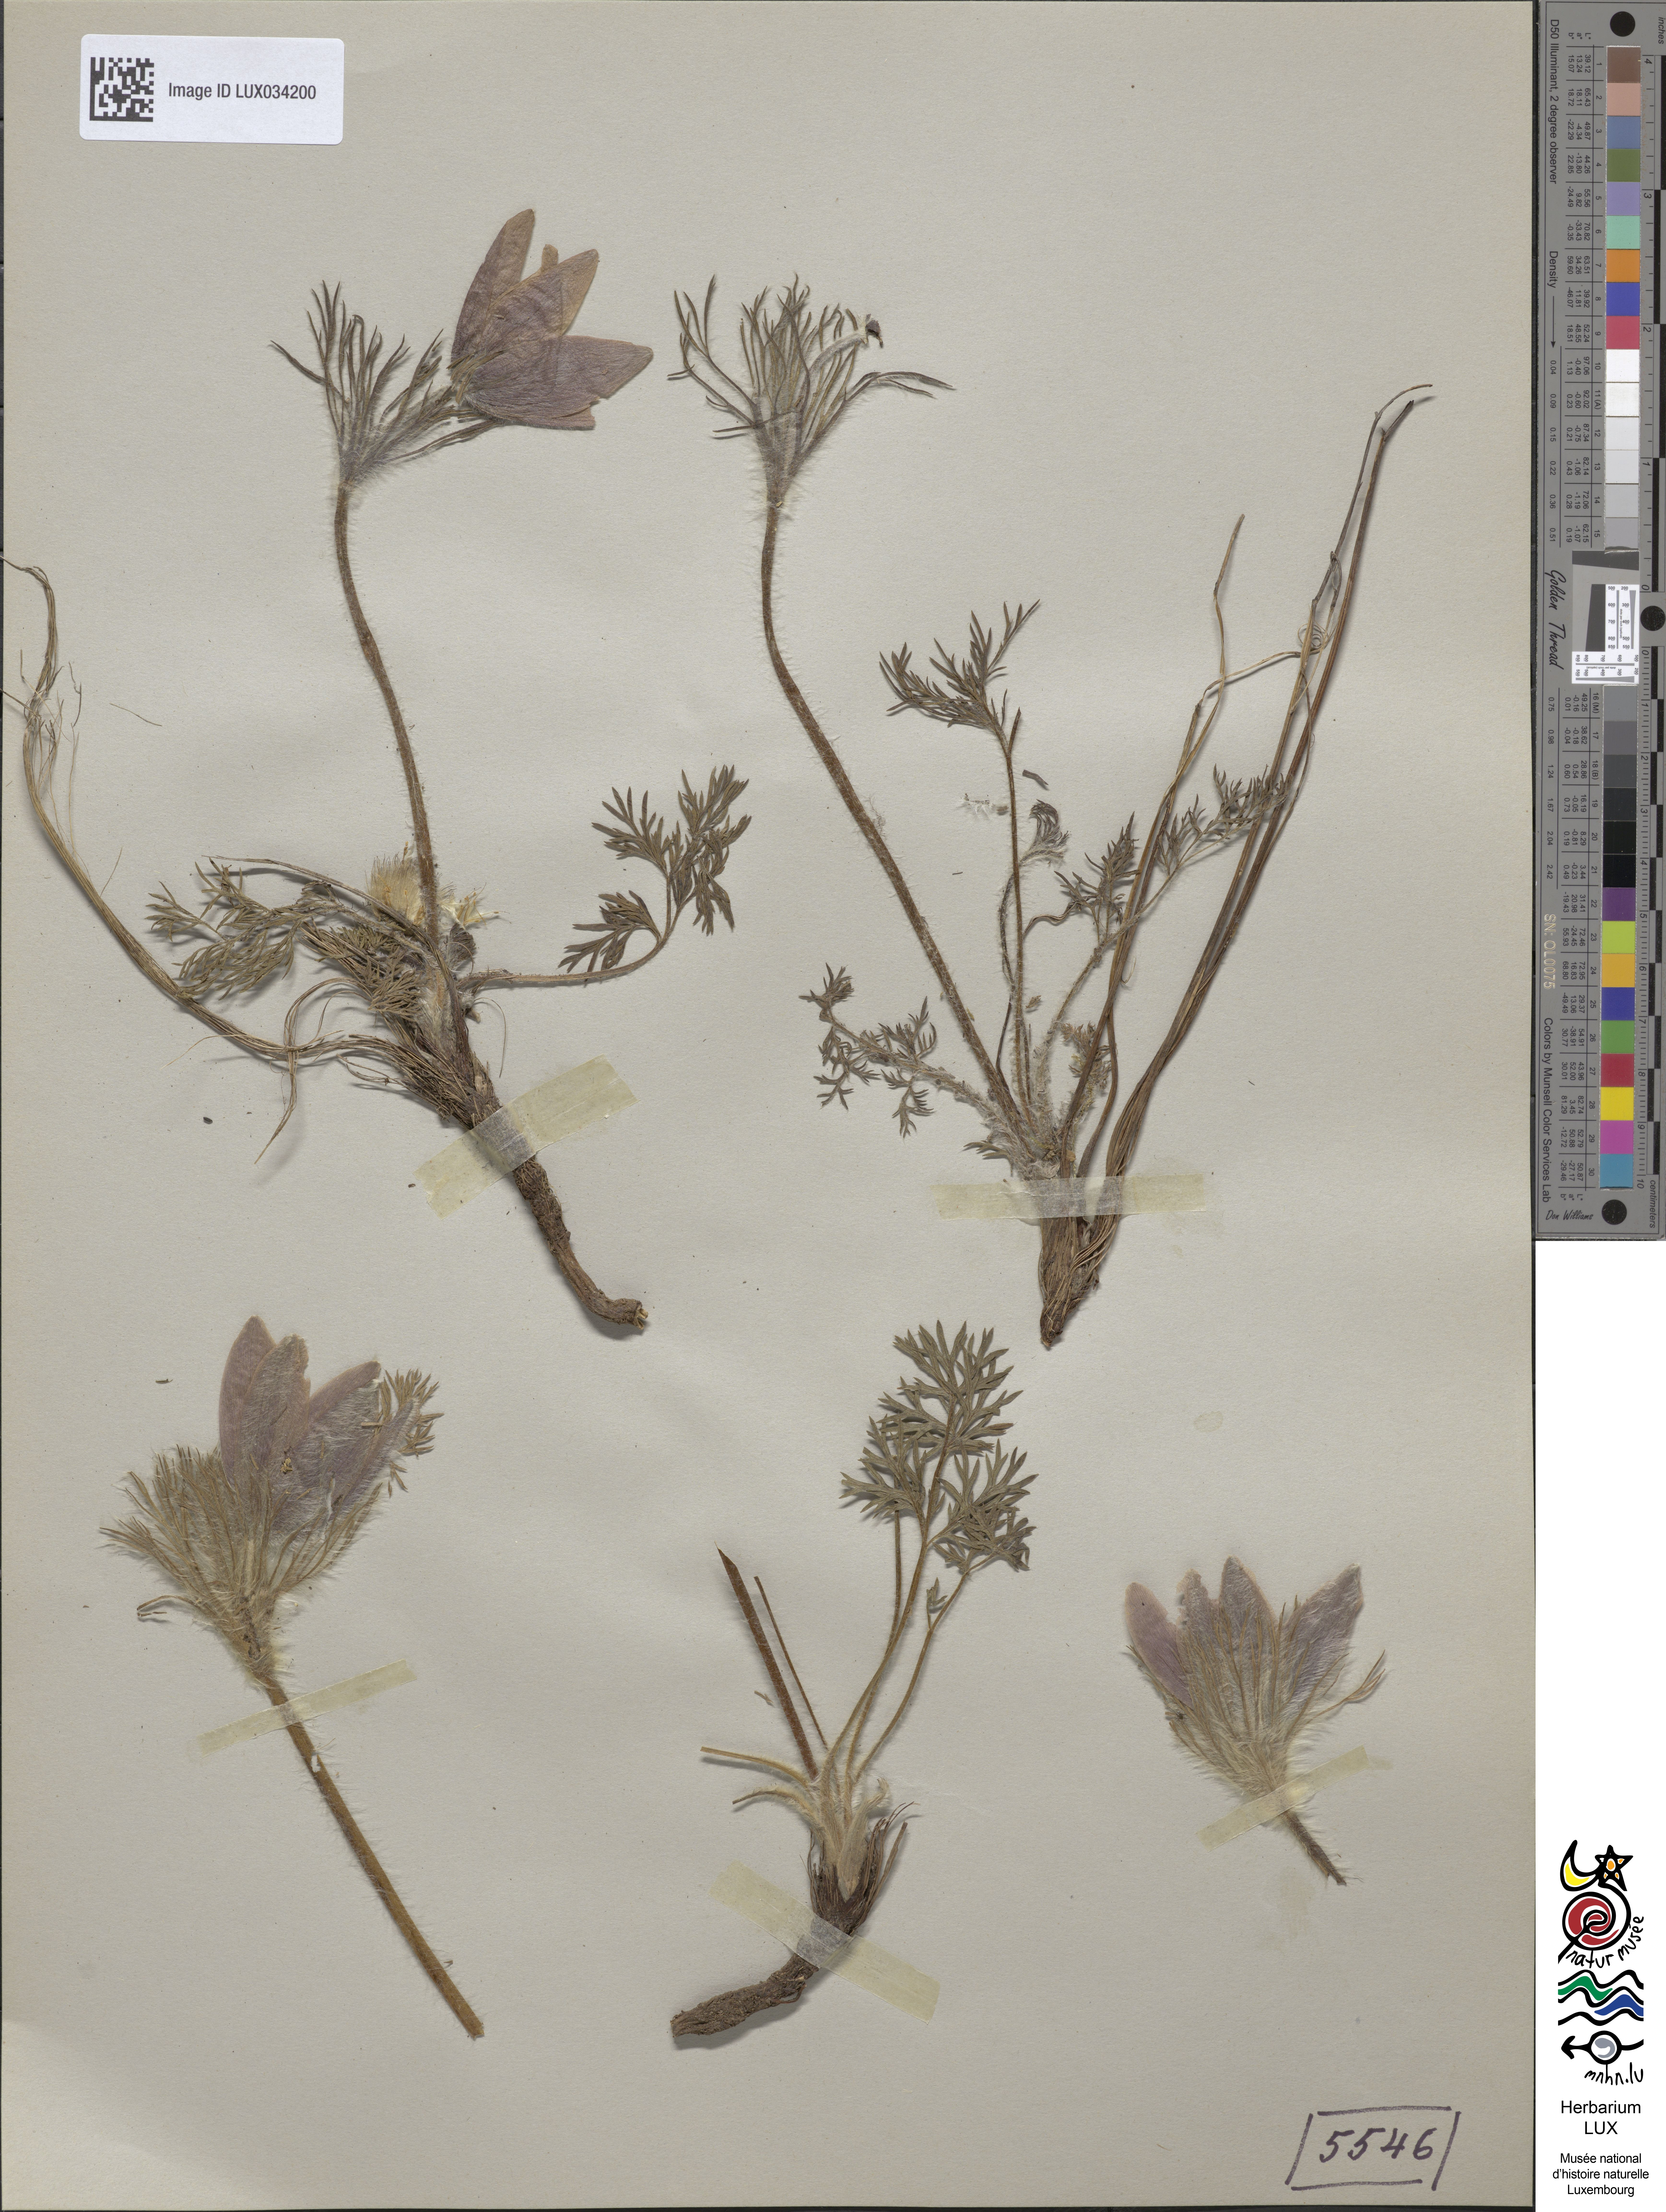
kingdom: Plantae
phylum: Tracheophyta
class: Magnoliopsida
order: Ranunculales
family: Ranunculaceae
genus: Pulsatilla
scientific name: Pulsatilla vulgaris
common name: Pasqueflower
